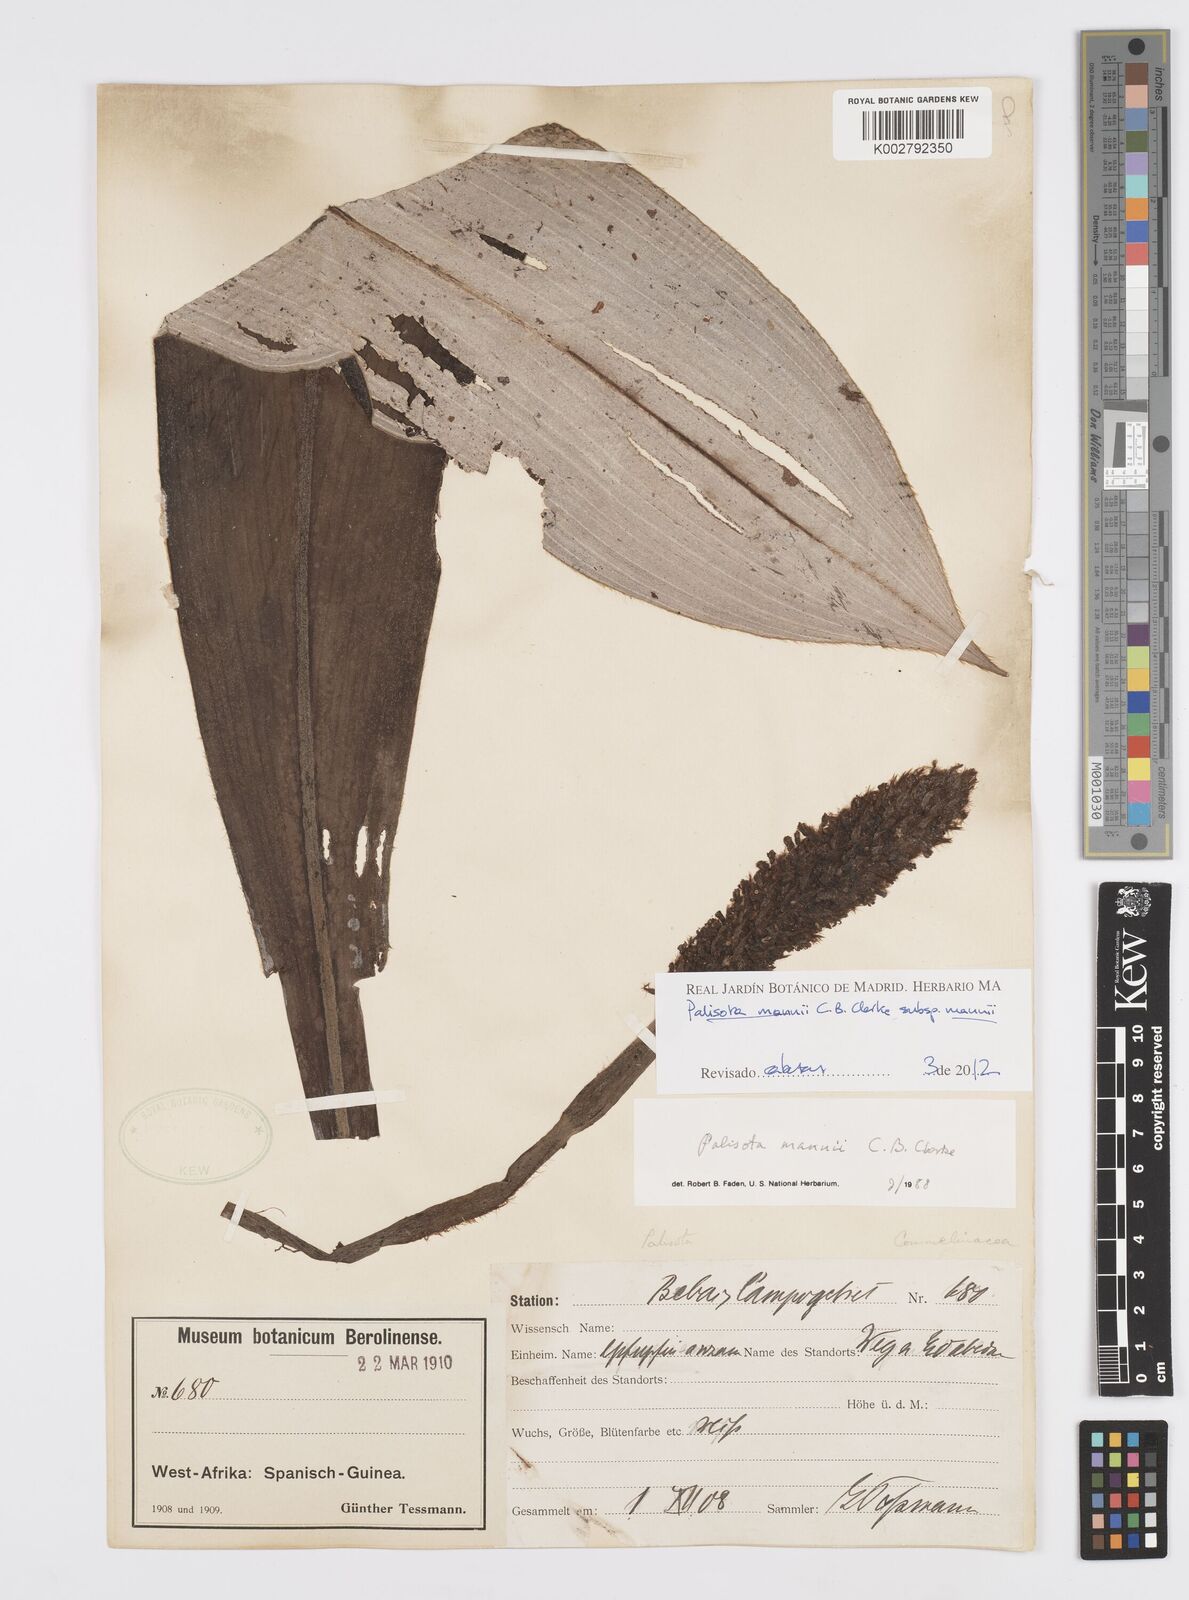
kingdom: Plantae
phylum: Tracheophyta
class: Liliopsida
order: Commelinales
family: Commelinaceae
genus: Palisota
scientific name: Palisota mannii
